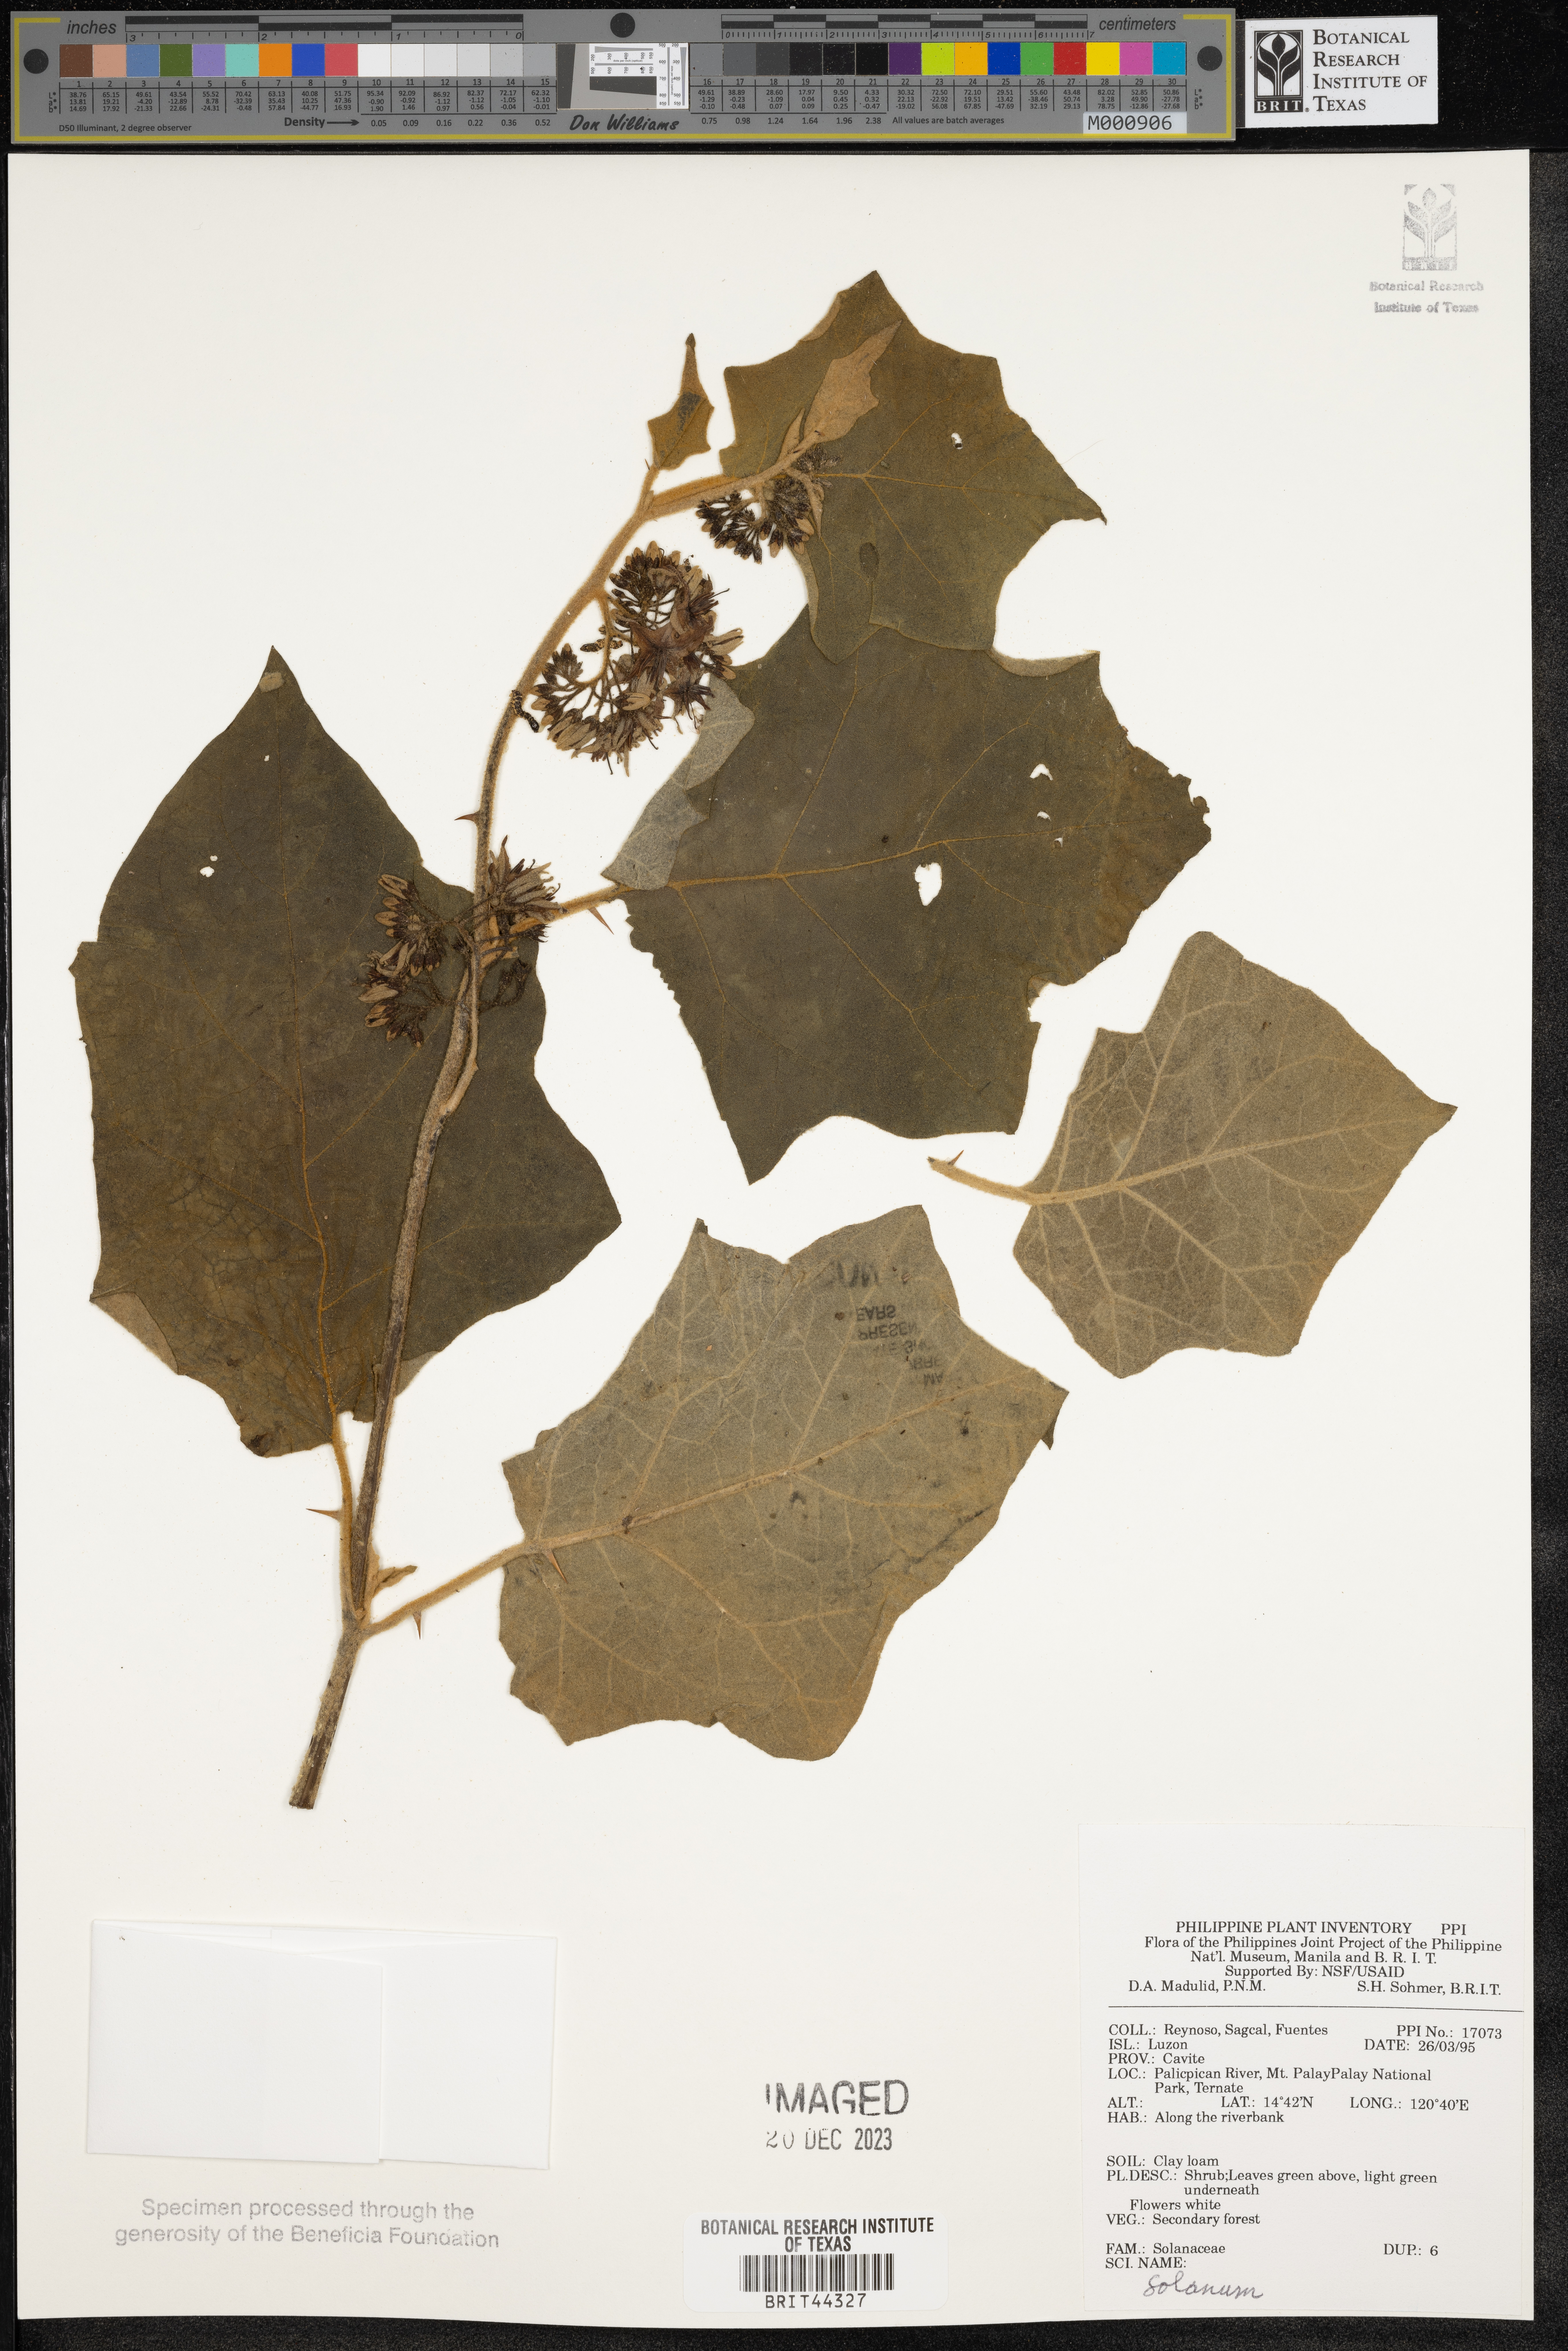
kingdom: Plantae
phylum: Tracheophyta
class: Magnoliopsida
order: Solanales
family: Solanaceae
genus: Solanum
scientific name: Solanum
